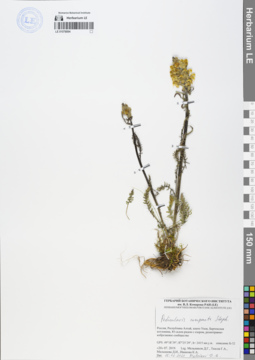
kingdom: Plantae
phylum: Tracheophyta
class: Magnoliopsida
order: Lamiales
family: Orobanchaceae
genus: Pedicularis
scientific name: Pedicularis compacta
